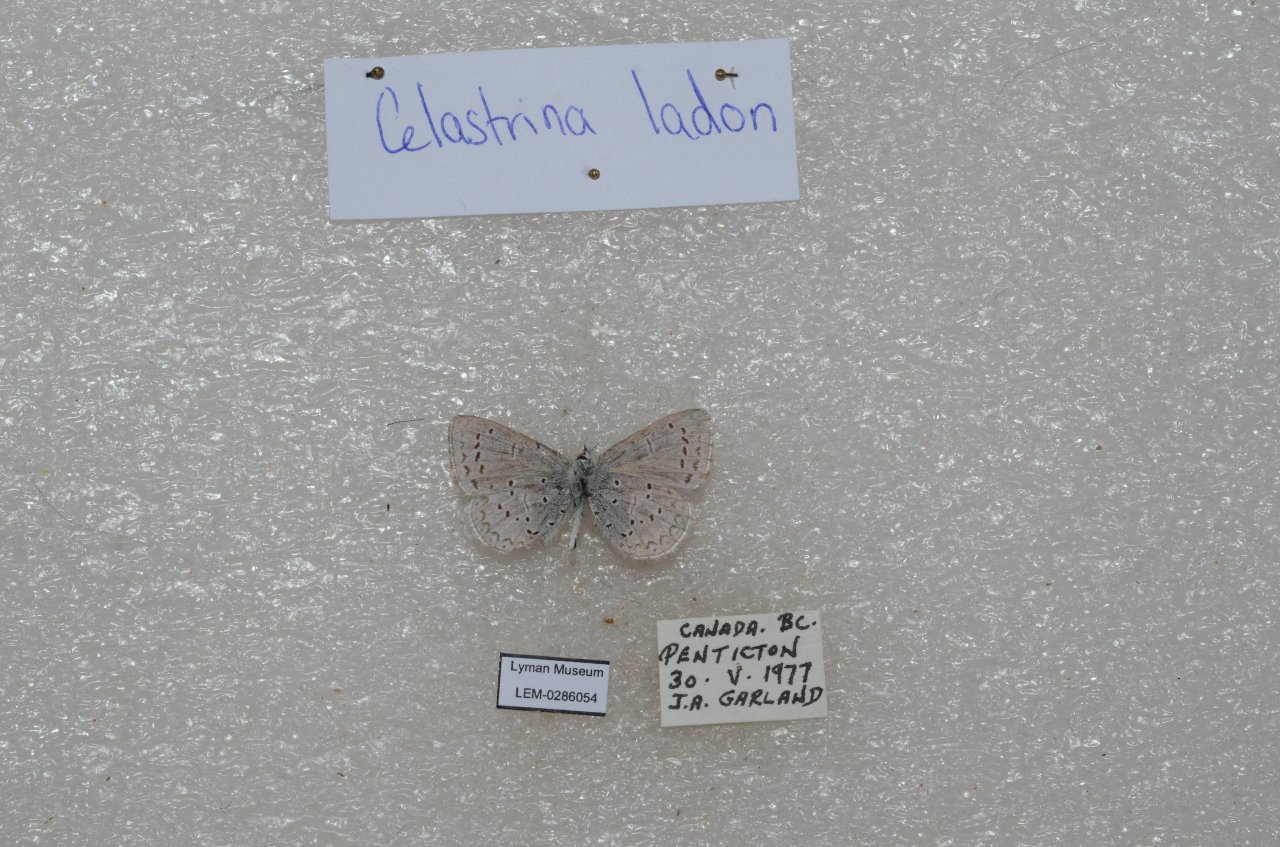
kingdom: Animalia
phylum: Arthropoda
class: Insecta
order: Lepidoptera
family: Lycaenidae
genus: Celastrina
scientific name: Celastrina
